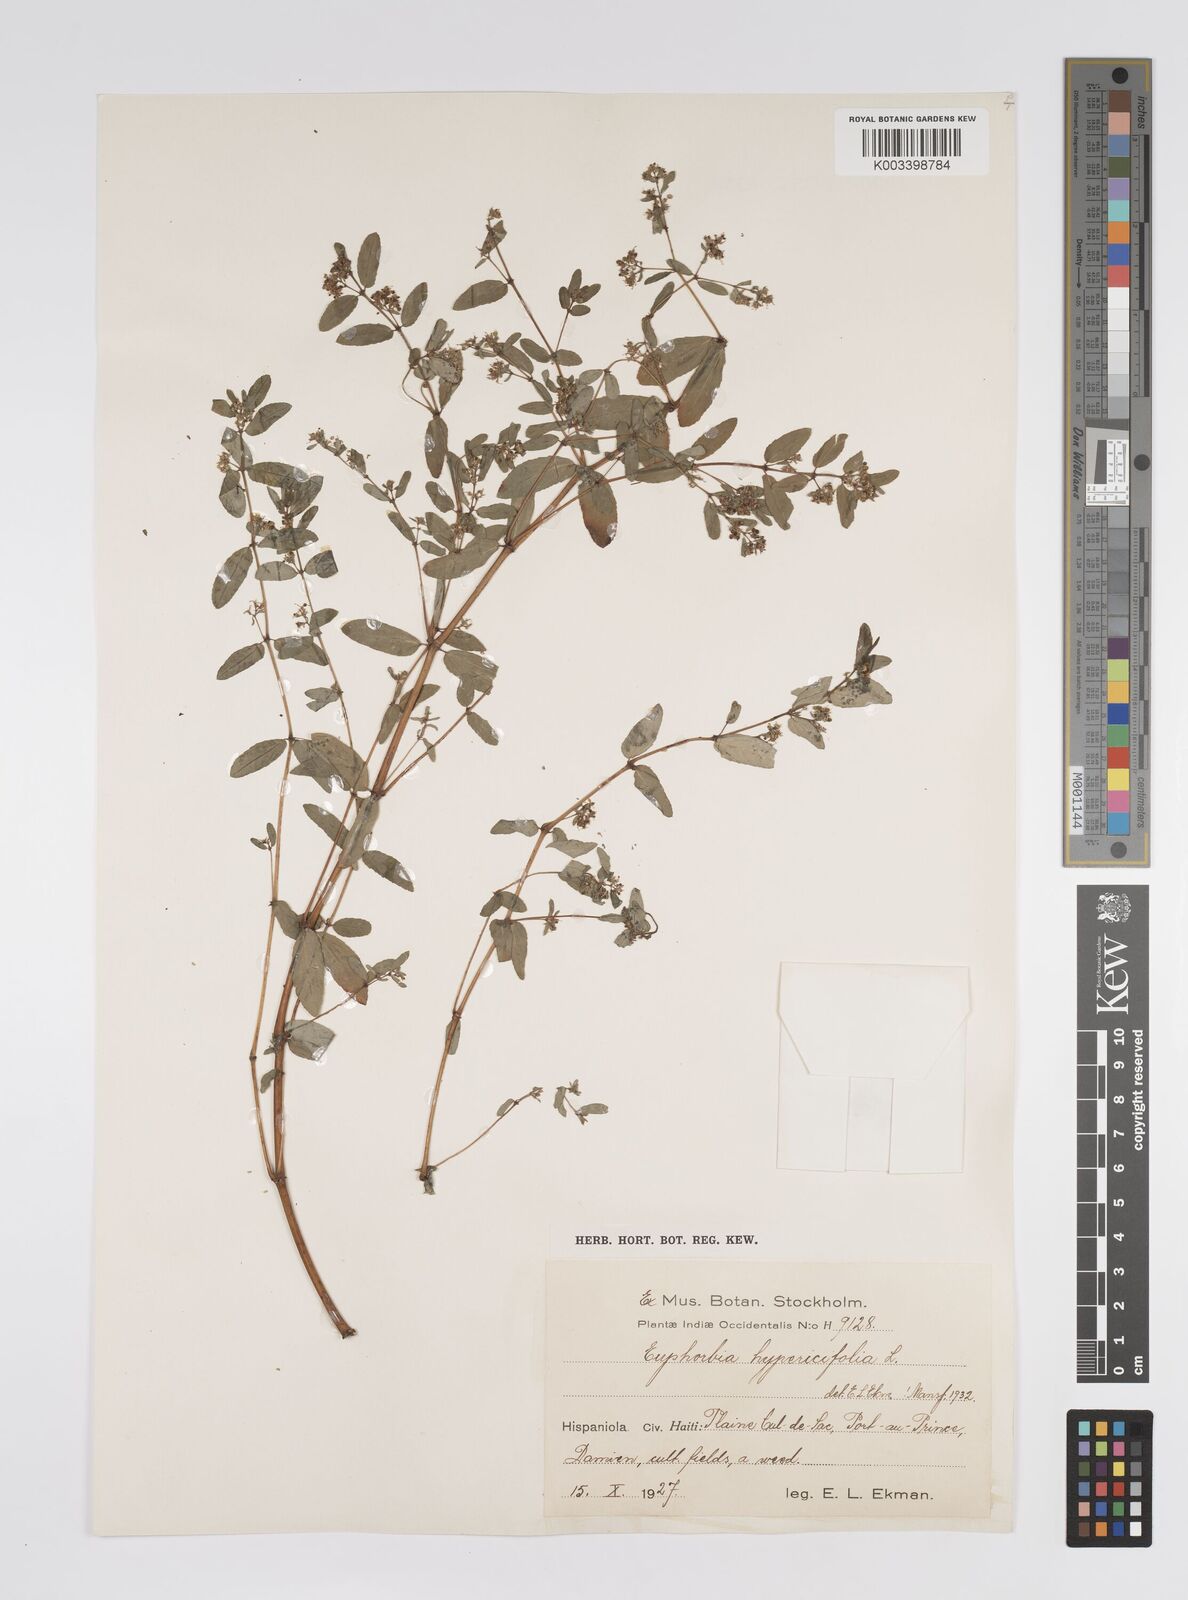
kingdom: Plantae
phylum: Tracheophyta
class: Magnoliopsida
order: Malpighiales
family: Euphorbiaceae
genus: Euphorbia
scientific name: Euphorbia hypericifolia
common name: Graceful sandmat
